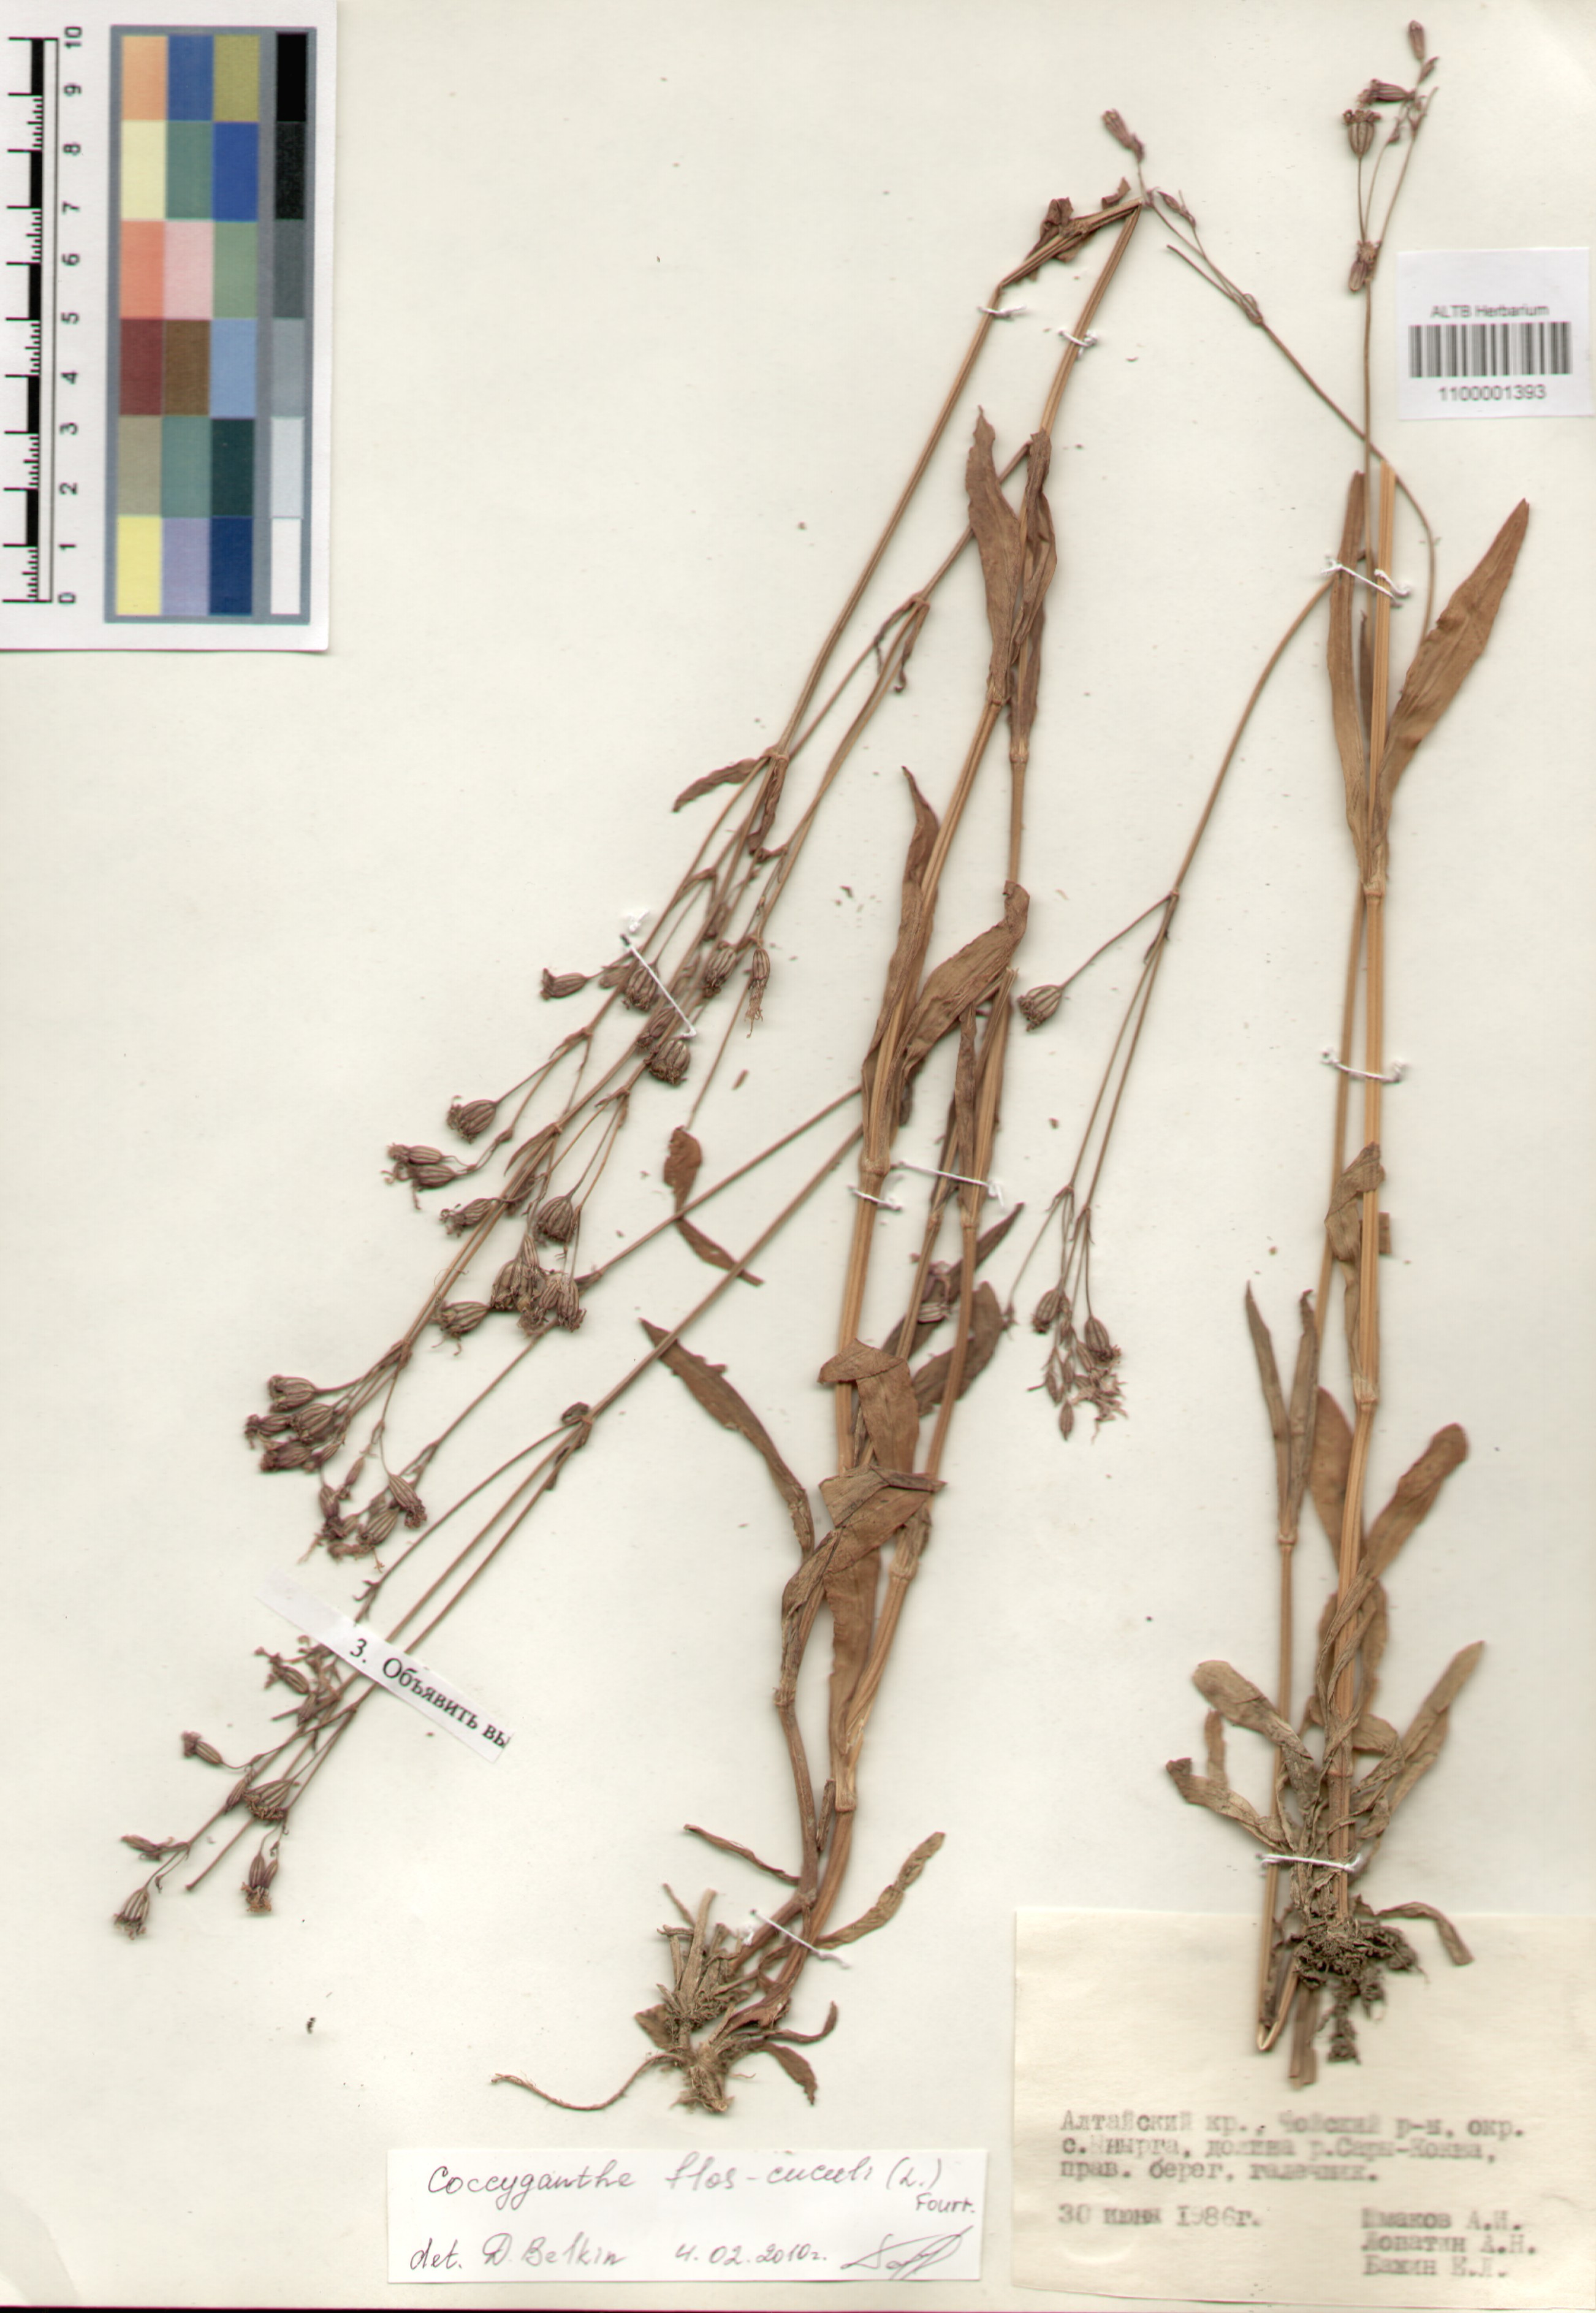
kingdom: Plantae
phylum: Tracheophyta
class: Magnoliopsida
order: Caryophyllales
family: Caryophyllaceae
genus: Silene
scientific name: Silene flos-cuculi
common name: Ragged-robin
